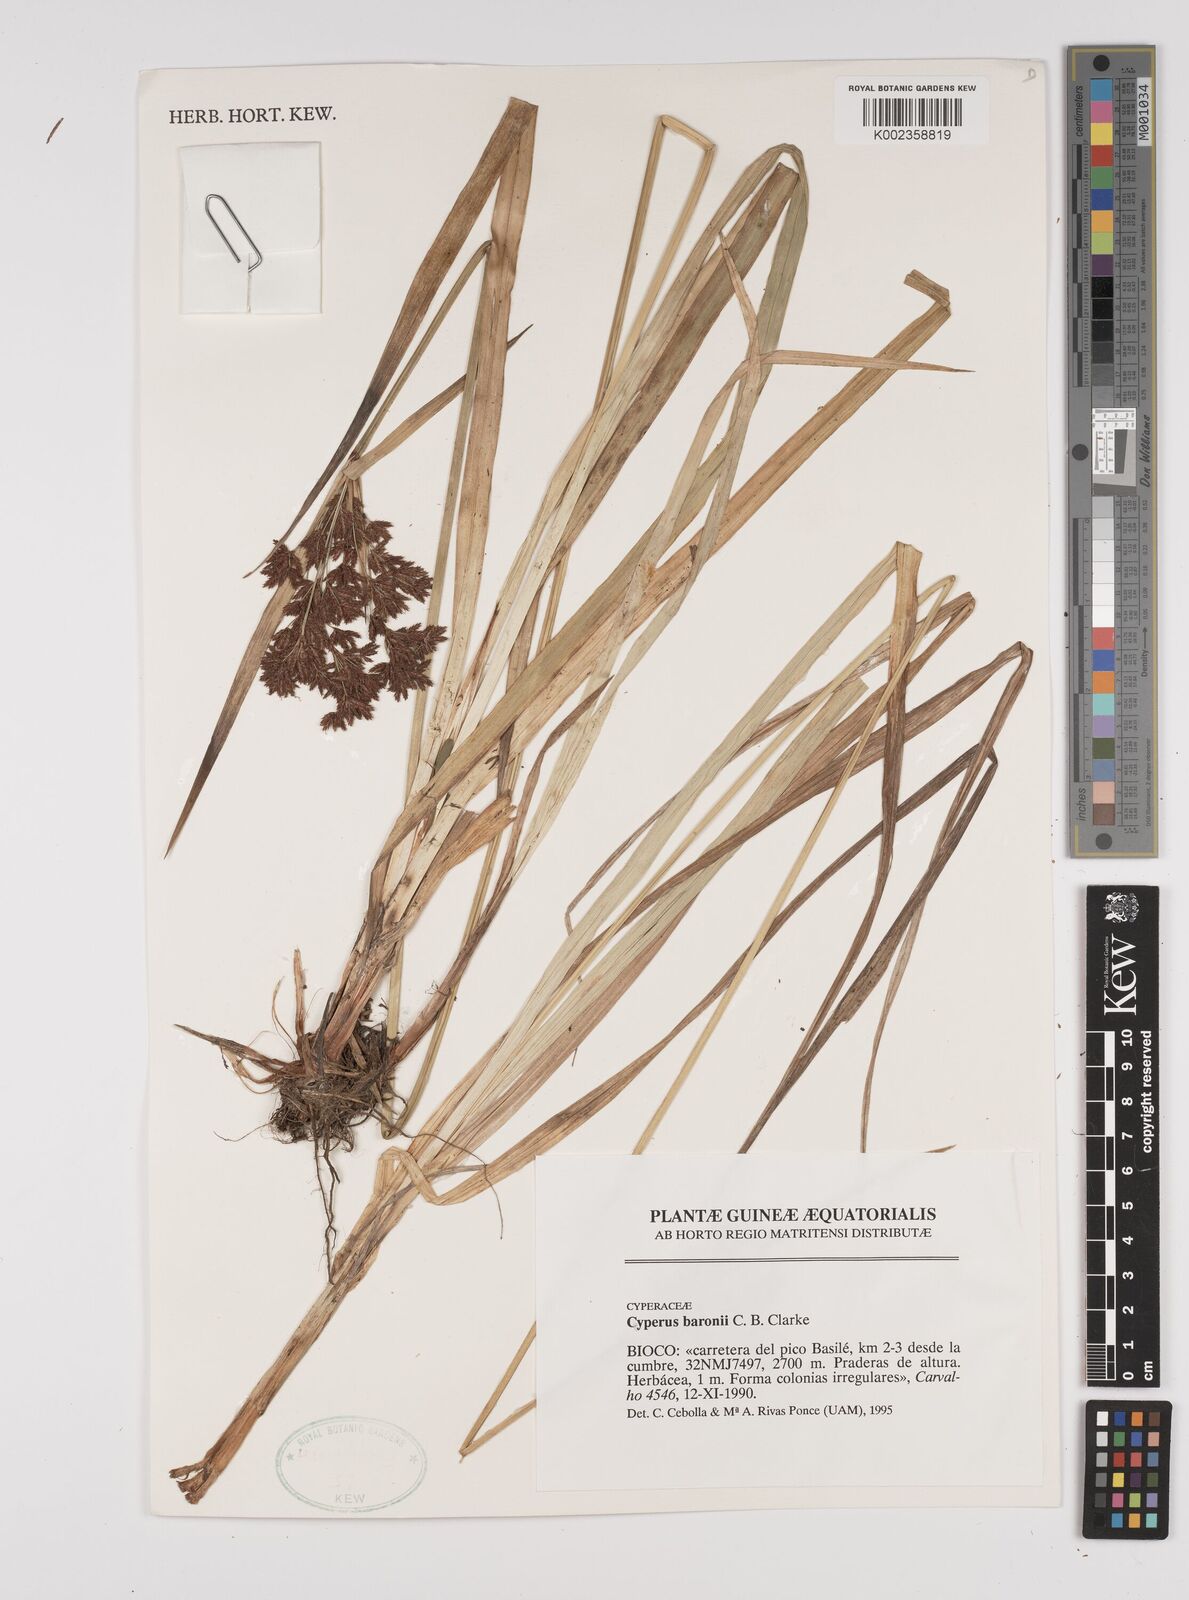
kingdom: Plantae
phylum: Tracheophyta
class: Liliopsida
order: Poales
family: Cyperaceae
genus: Cyperus
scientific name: Cyperus baronii
